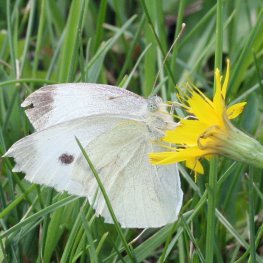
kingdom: Animalia
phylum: Arthropoda
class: Insecta
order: Lepidoptera
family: Pieridae
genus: Pieris
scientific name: Pieris rapae
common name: Cabbage White
